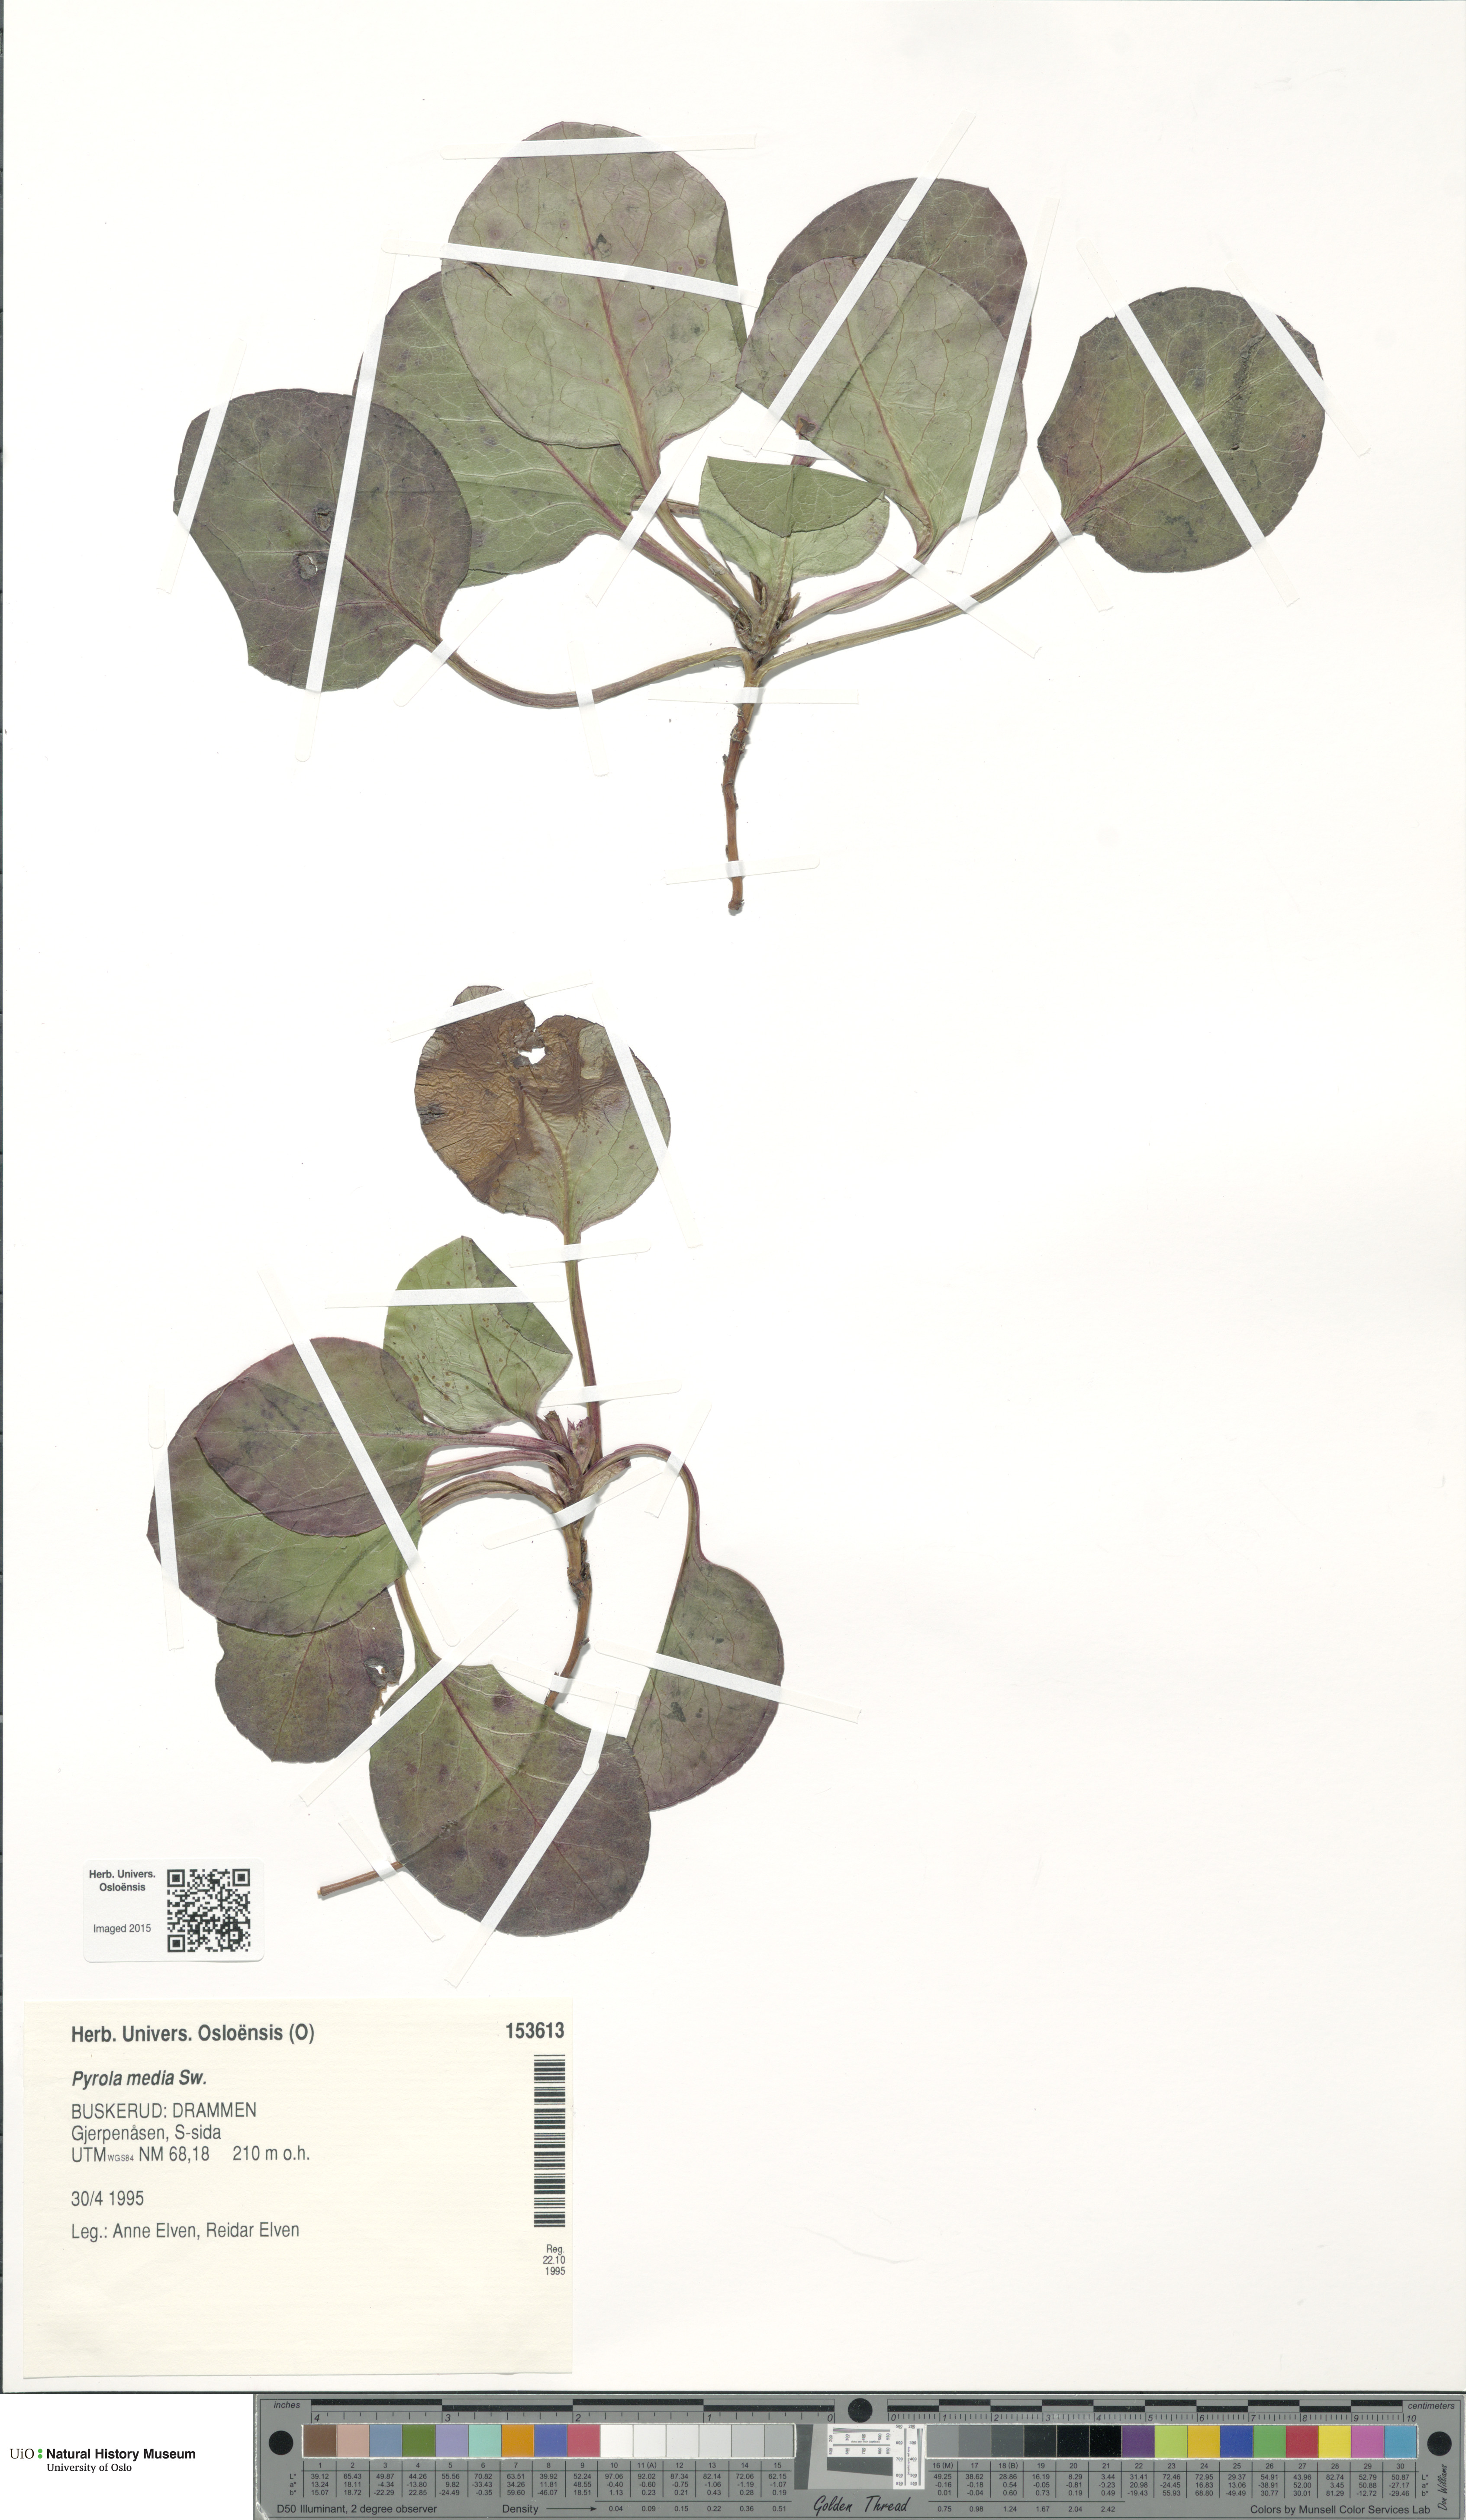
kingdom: Plantae
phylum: Tracheophyta
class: Magnoliopsida
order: Ericales
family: Ericaceae
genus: Pyrola
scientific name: Pyrola media
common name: Intermediate wintergreen
